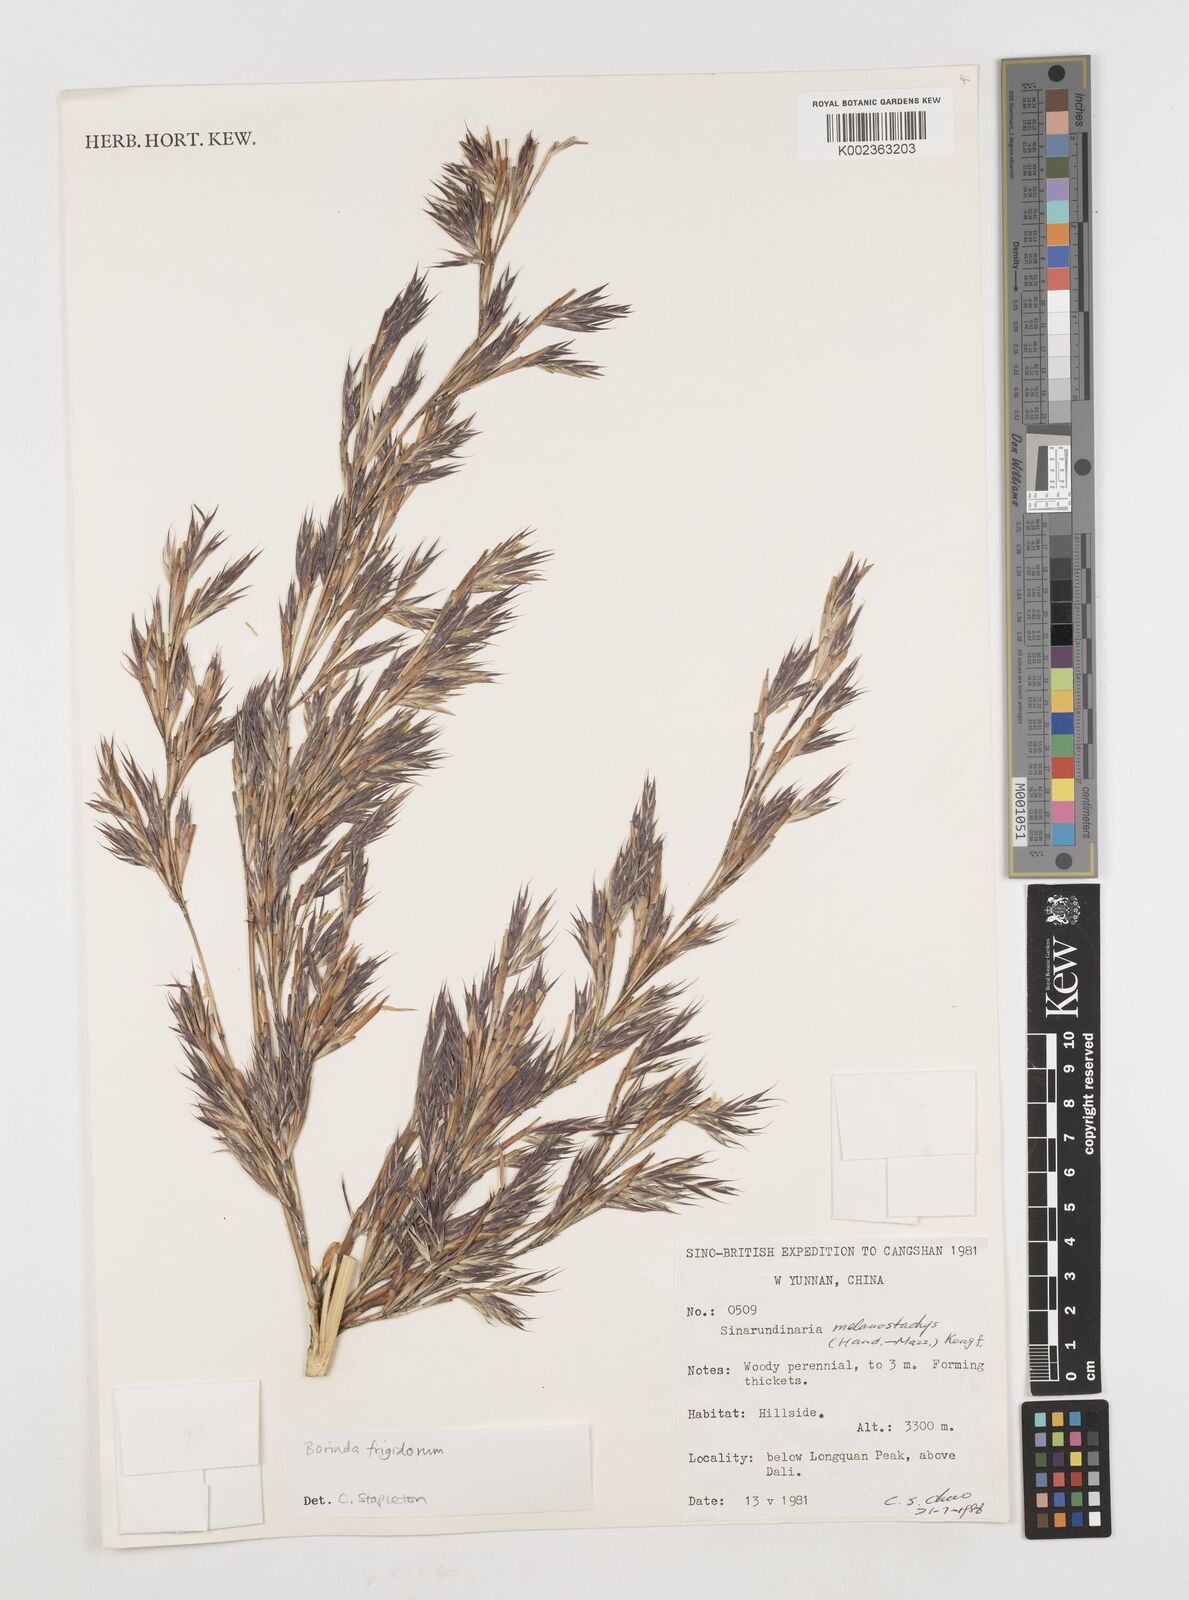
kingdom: Plantae
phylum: Tracheophyta
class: Liliopsida
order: Poales
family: Poaceae
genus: Fargesia
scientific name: Fargesia
